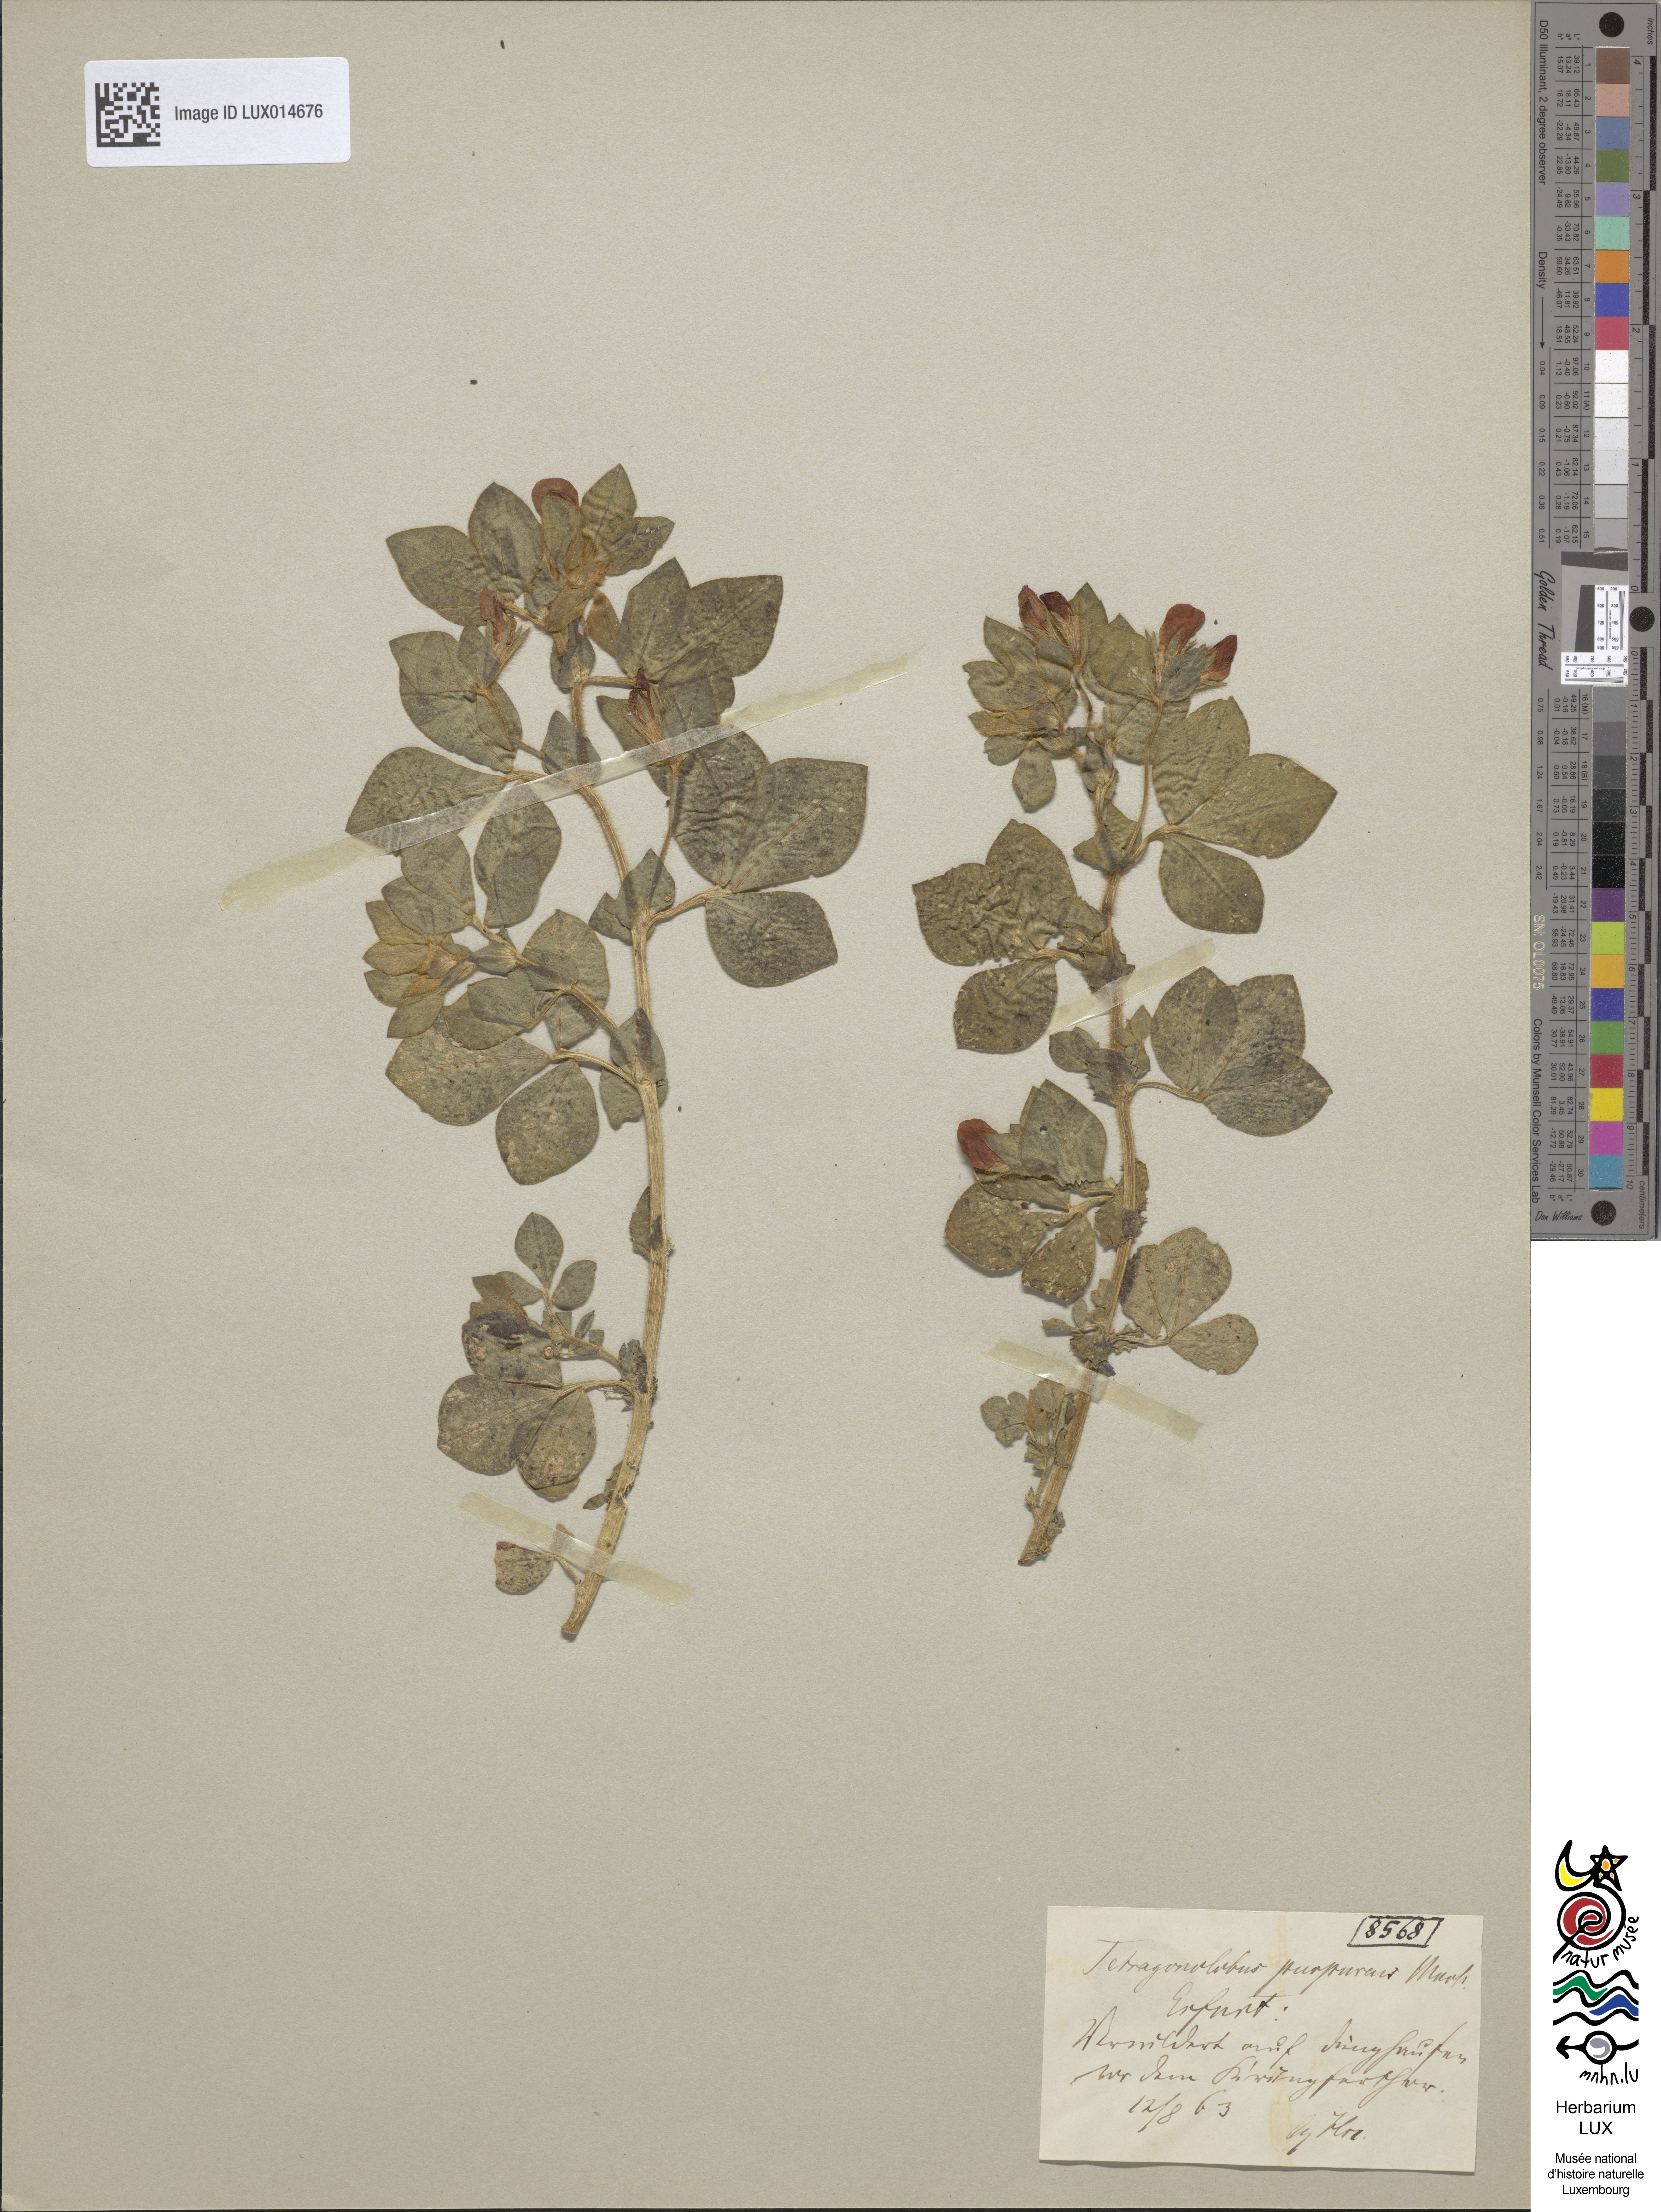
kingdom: Plantae
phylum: Tracheophyta
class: Magnoliopsida
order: Fabales
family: Fabaceae
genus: Lotus
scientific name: Lotus tetragonolobus
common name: Asparagus-pea
